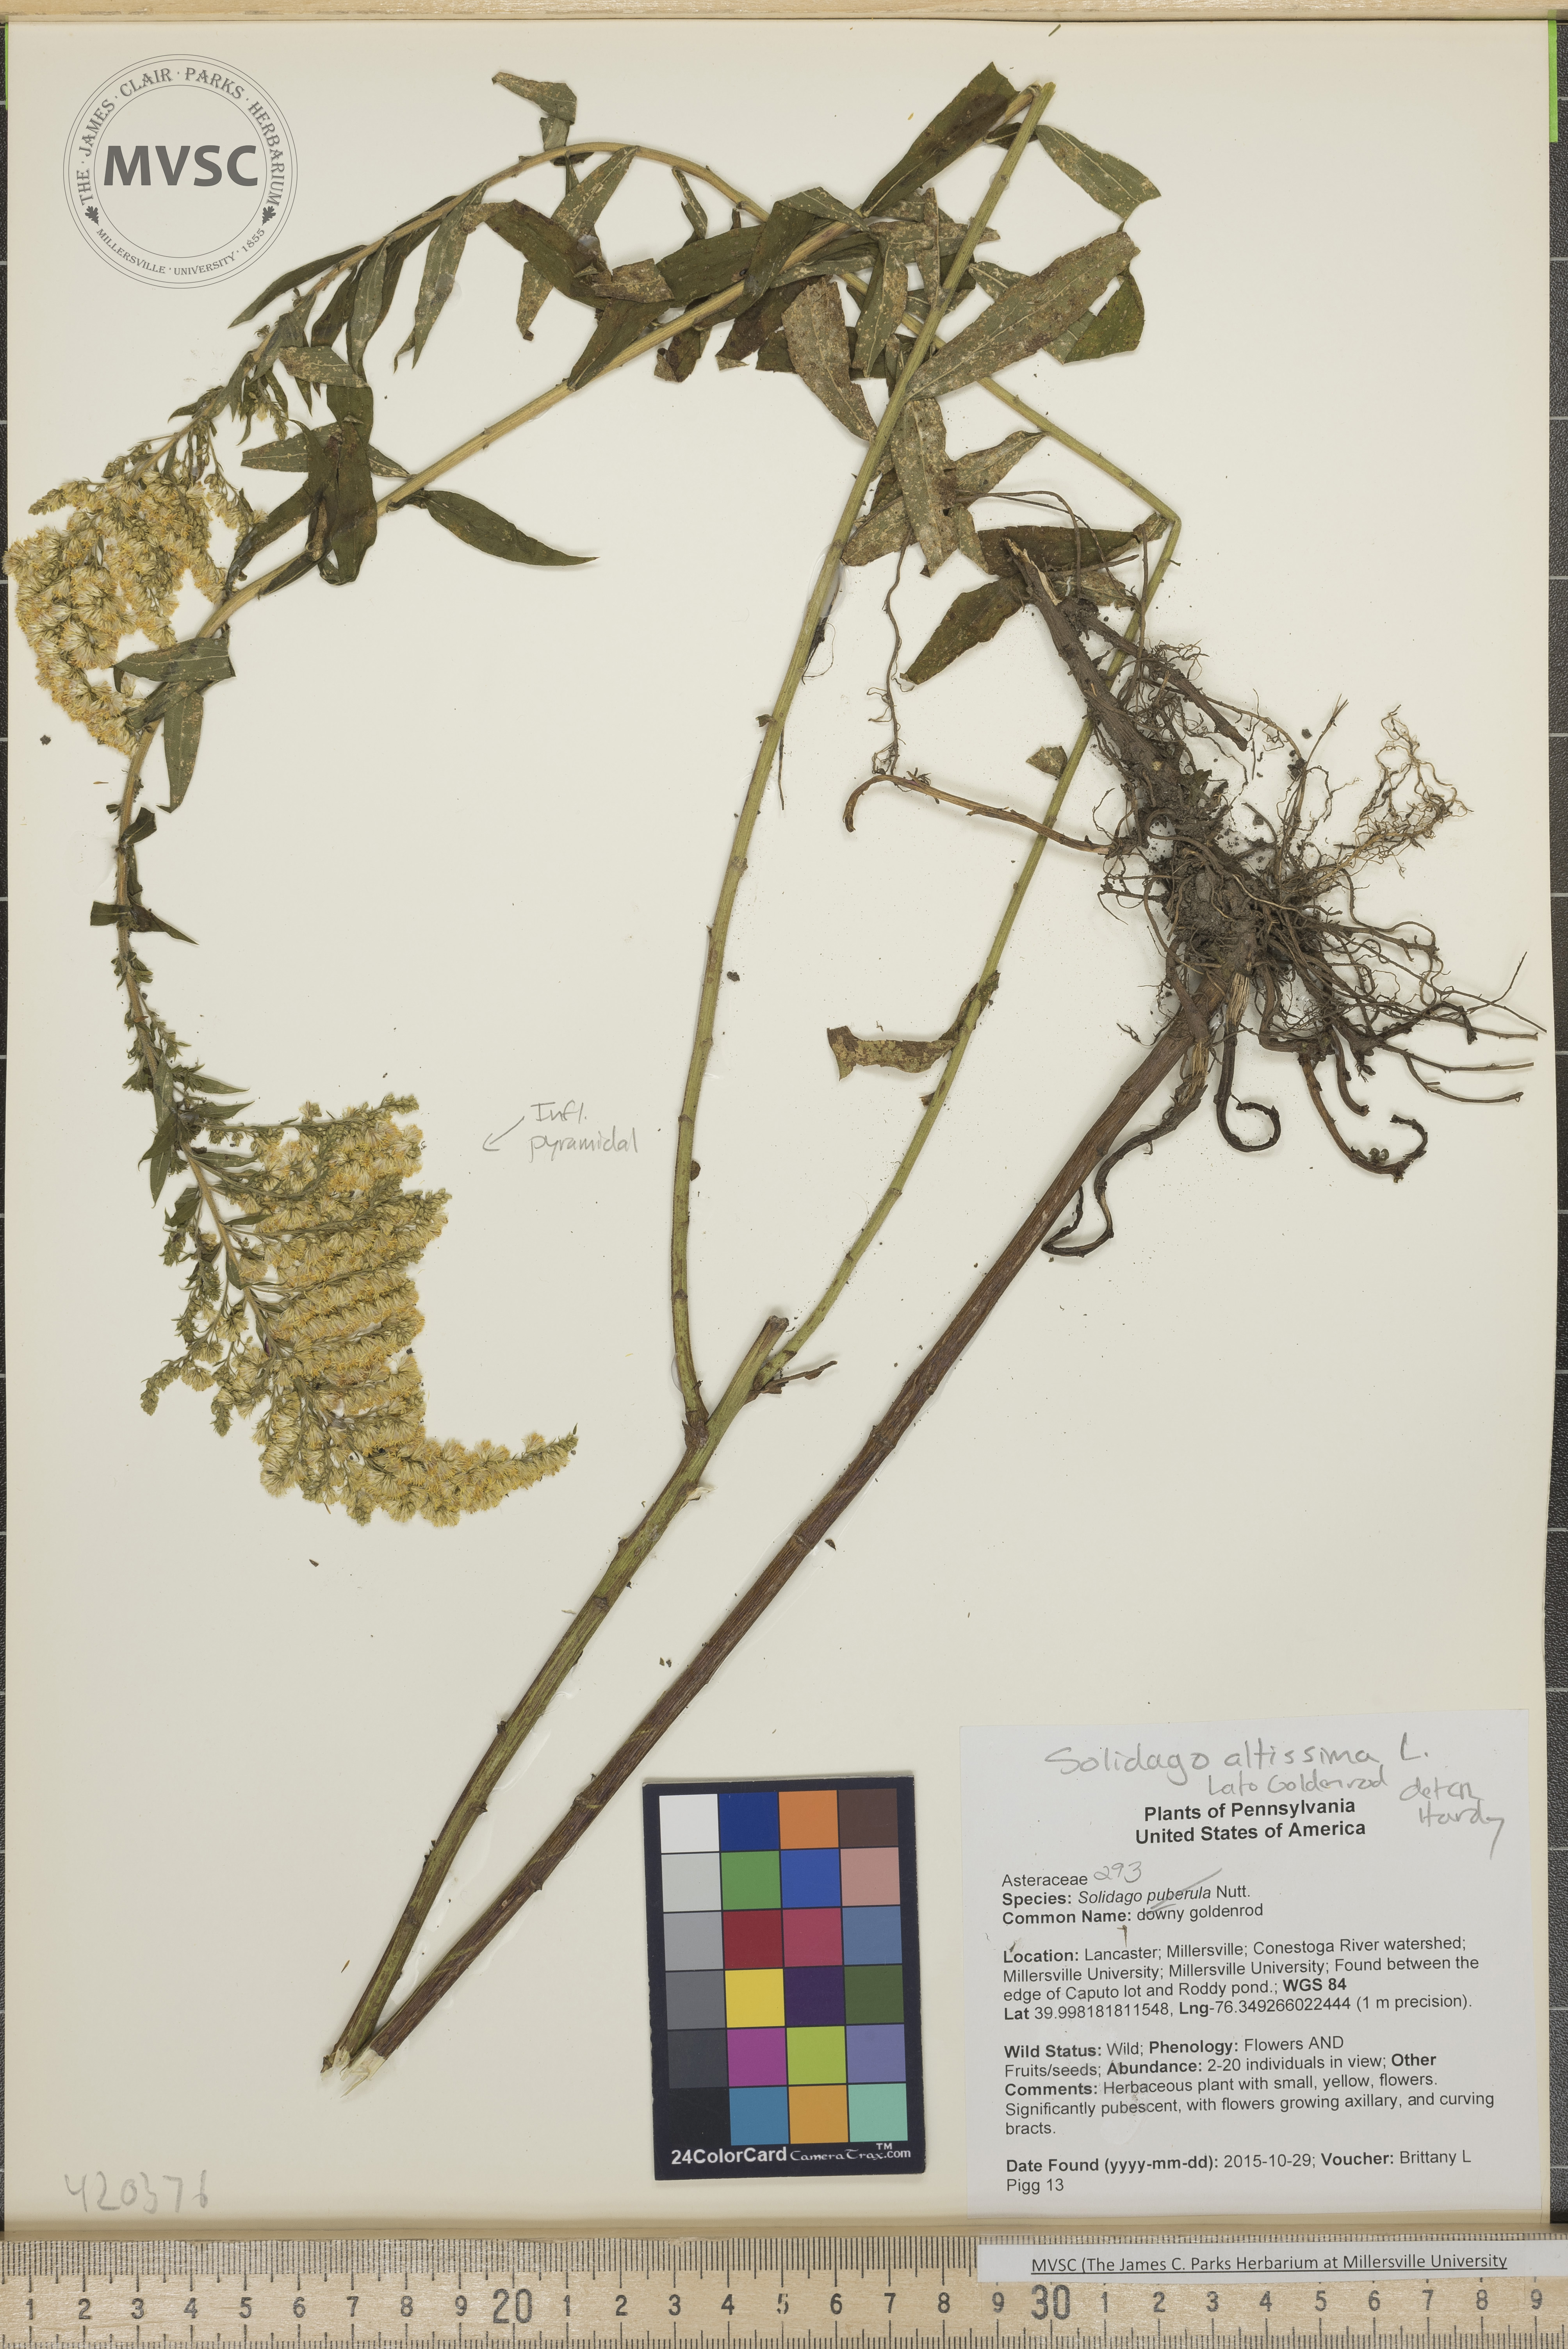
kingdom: Plantae
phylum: Tracheophyta
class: Magnoliopsida
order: Asterales
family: Asteraceae
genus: Solidago
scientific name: Solidago altissima
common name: late goldenrod
